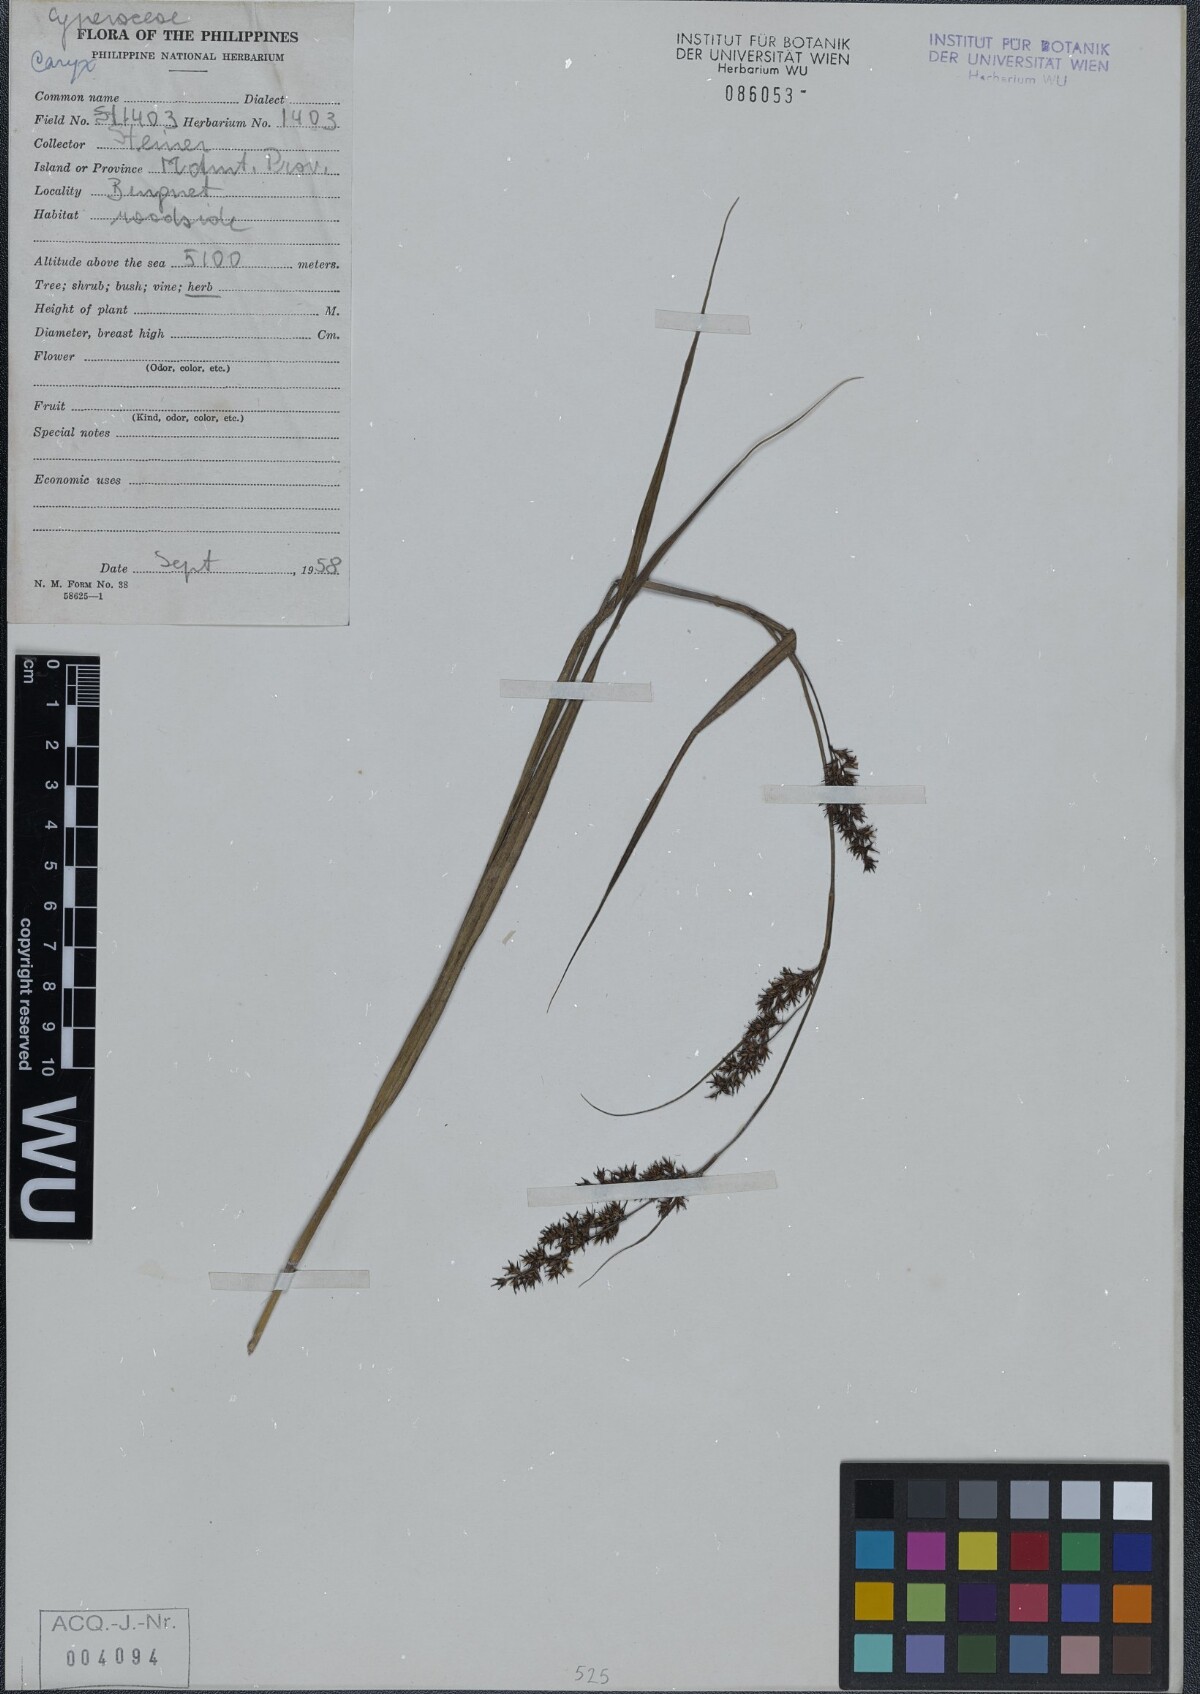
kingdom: Plantae
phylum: Tracheophyta
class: Liliopsida
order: Poales
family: Cyperaceae
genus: Carex
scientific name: Carex
